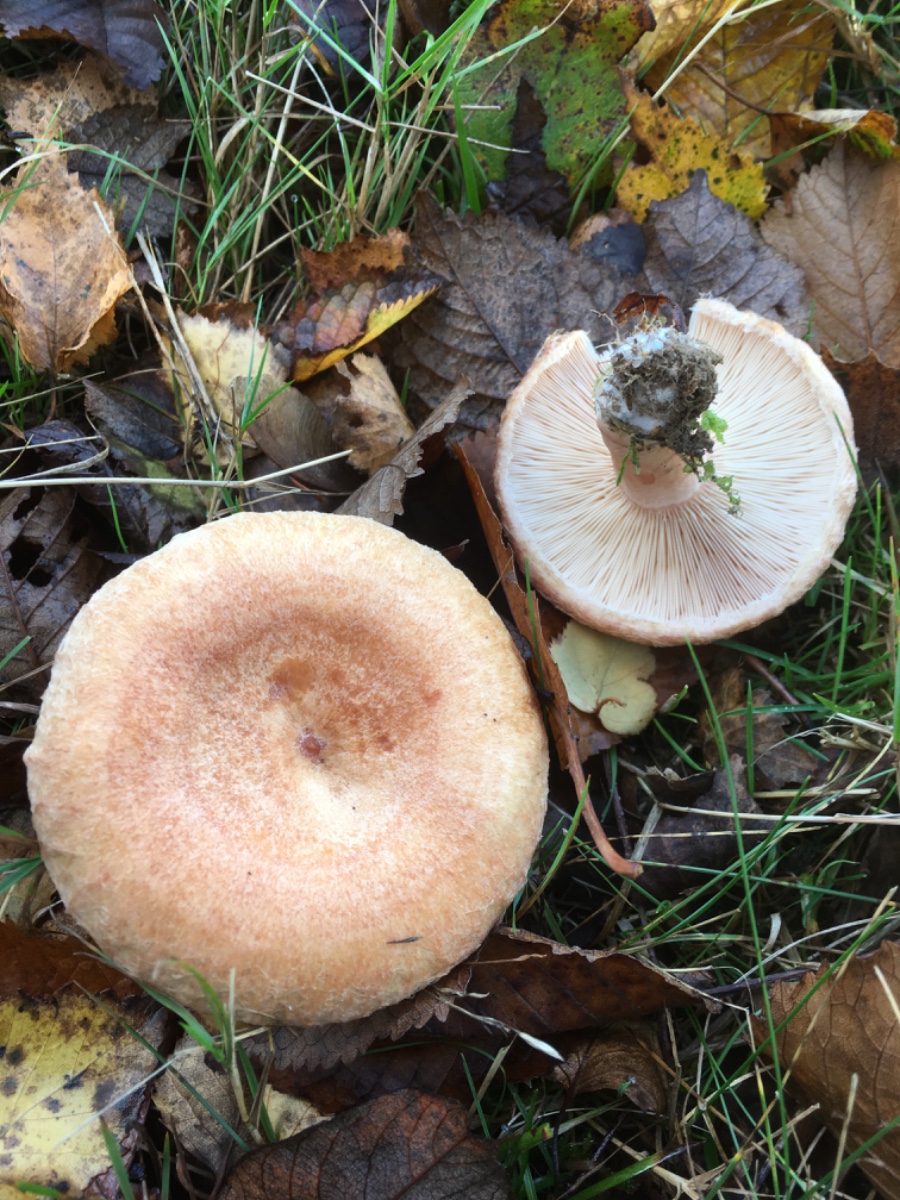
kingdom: Fungi
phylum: Basidiomycota
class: Agaricomycetes
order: Russulales
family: Russulaceae
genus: Lactarius
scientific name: Lactarius torminosus
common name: skægget mælkehat
